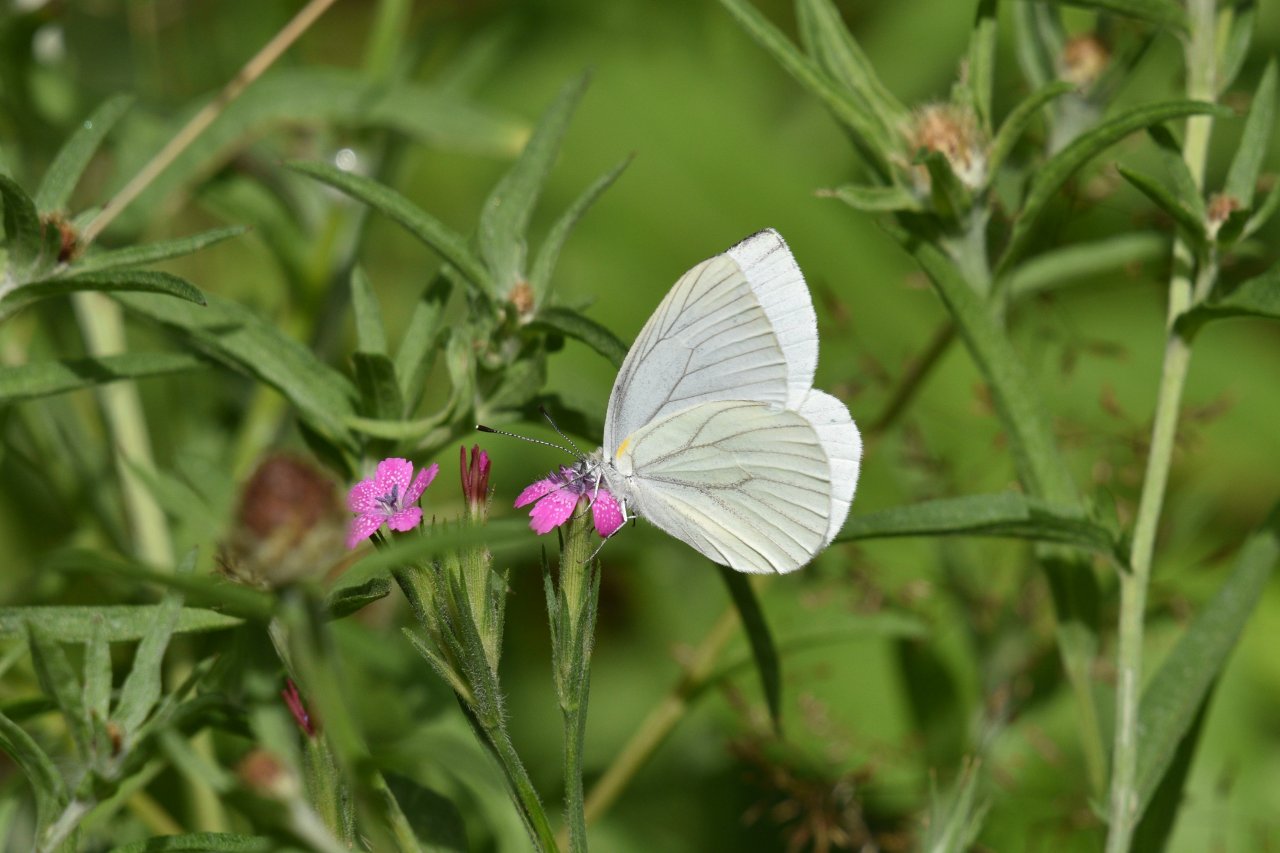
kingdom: Animalia
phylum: Arthropoda
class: Insecta
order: Lepidoptera
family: Pieridae
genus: Pieris
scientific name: Pieris oleracea
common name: Mustard White
